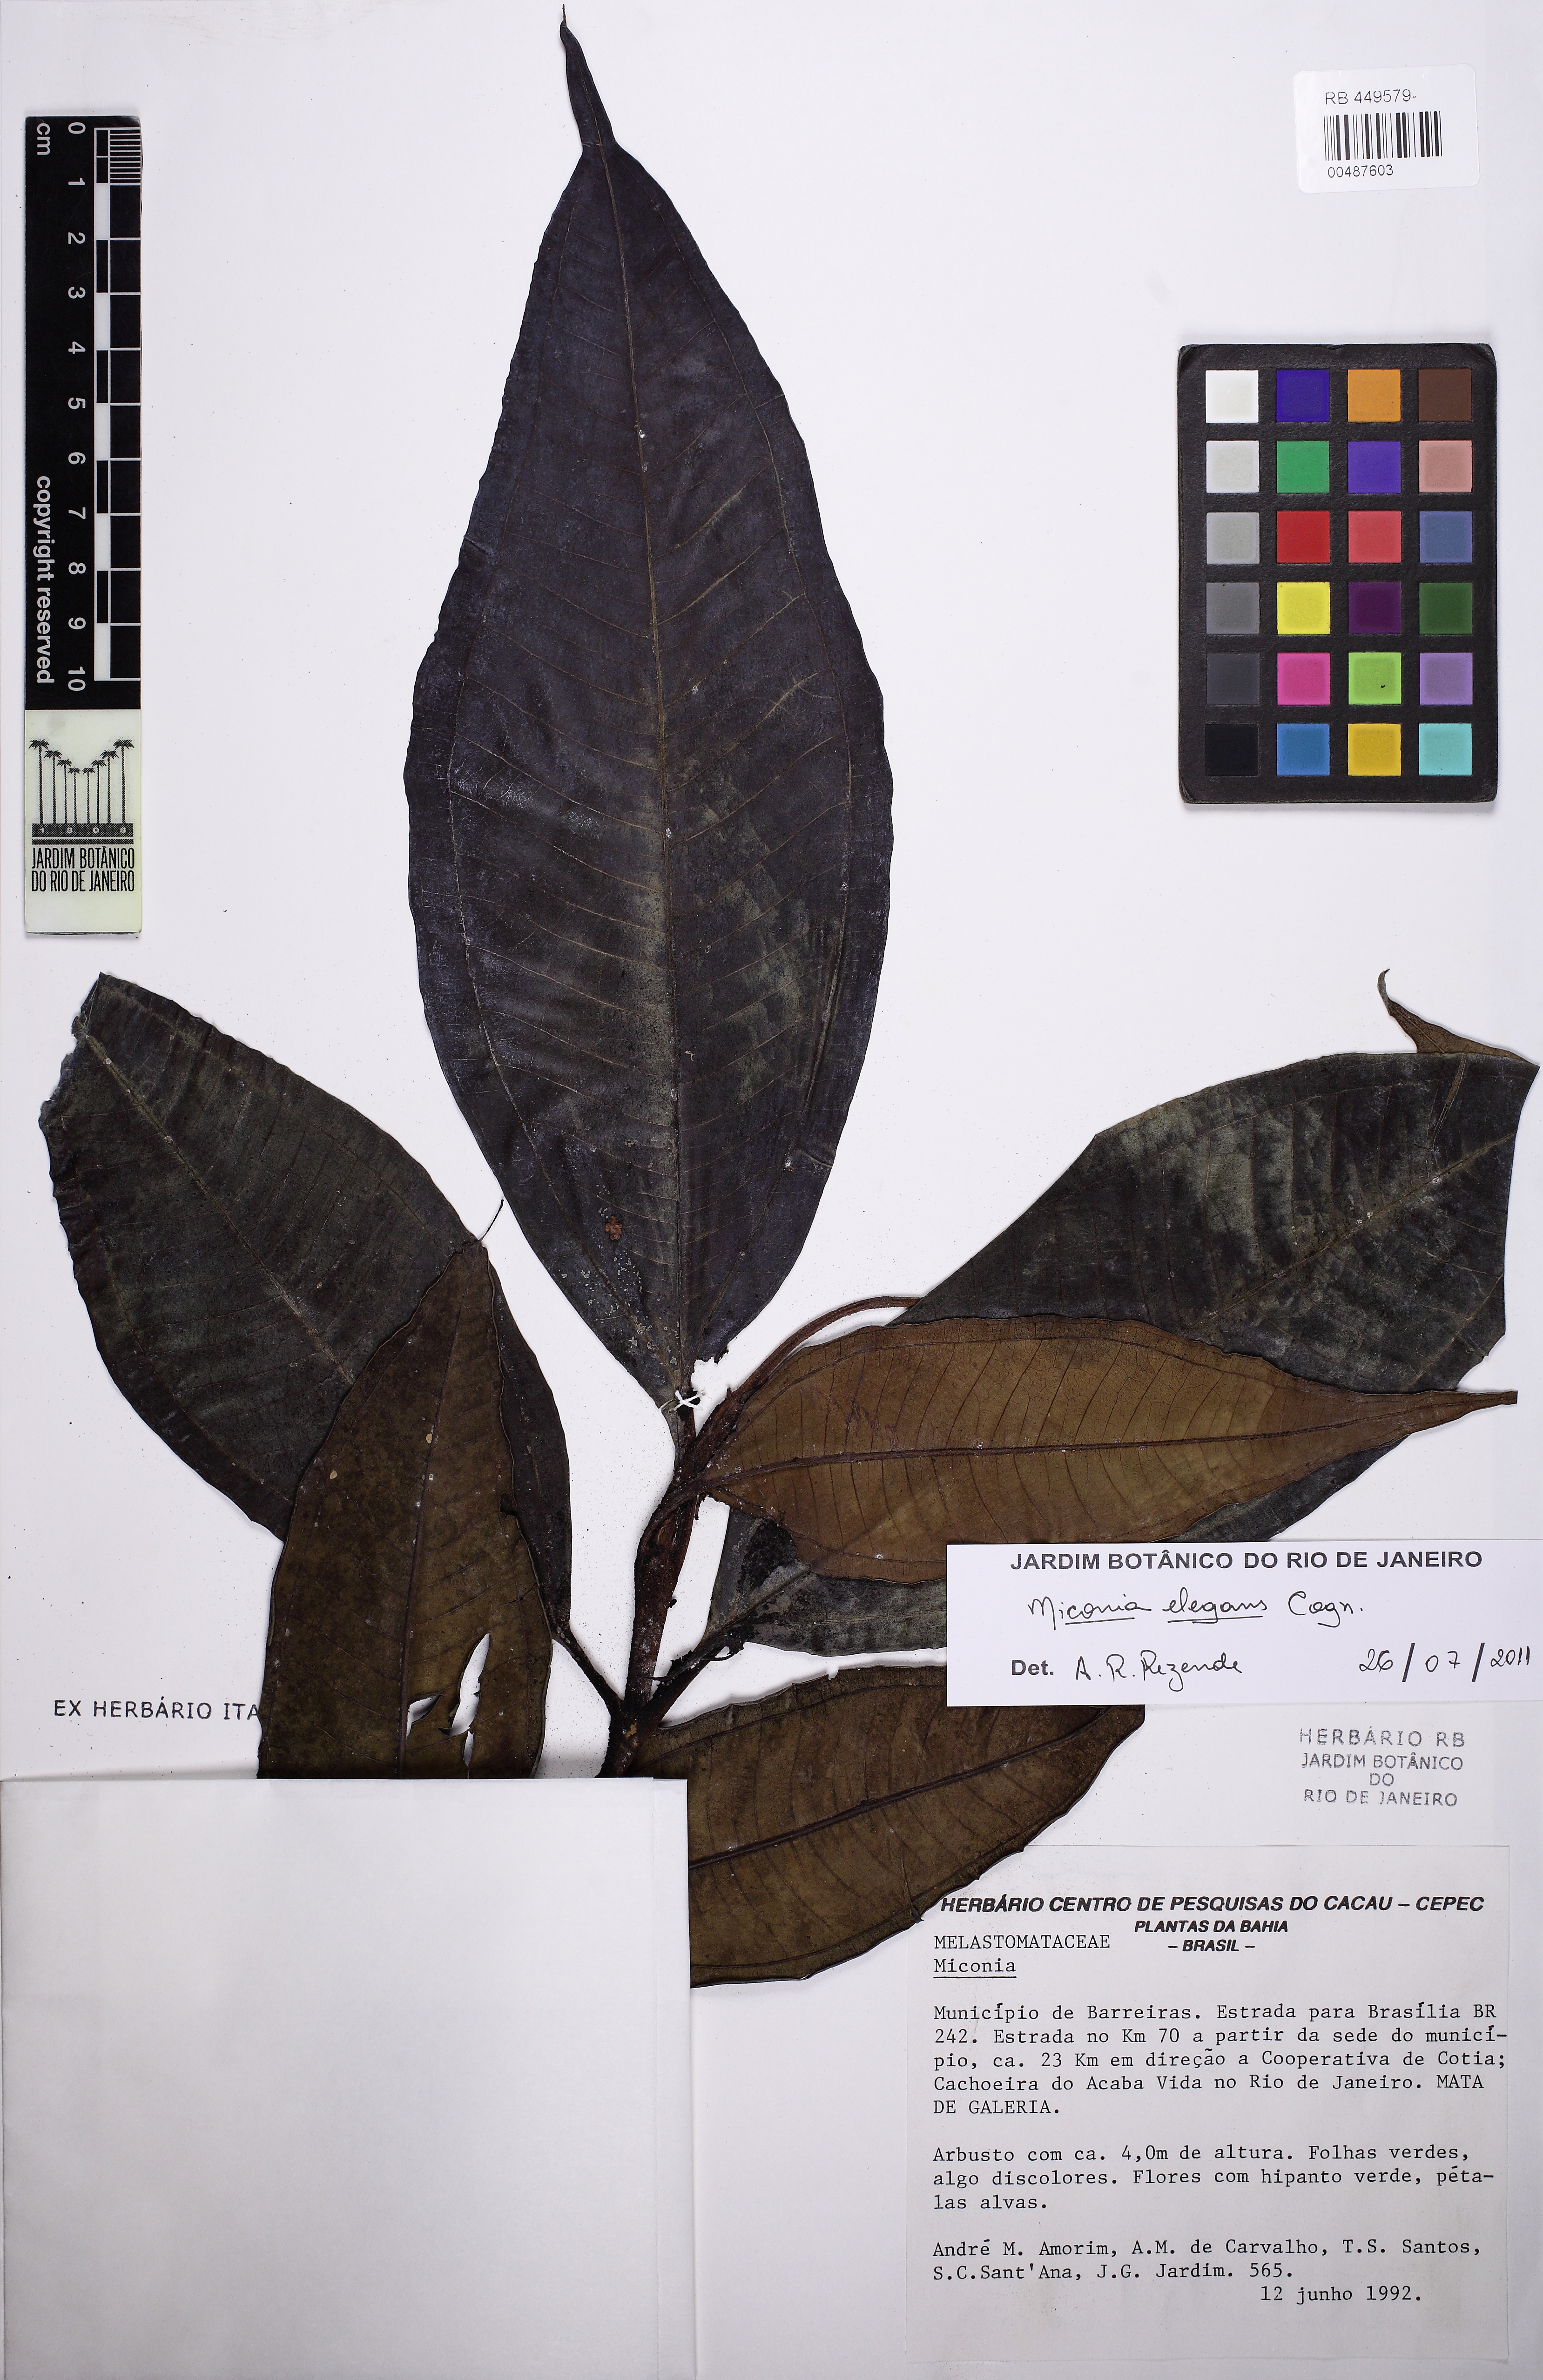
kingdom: Plantae
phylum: Tracheophyta
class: Magnoliopsida
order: Myrtales
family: Melastomataceae
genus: Miconia
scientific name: Miconia elegans
